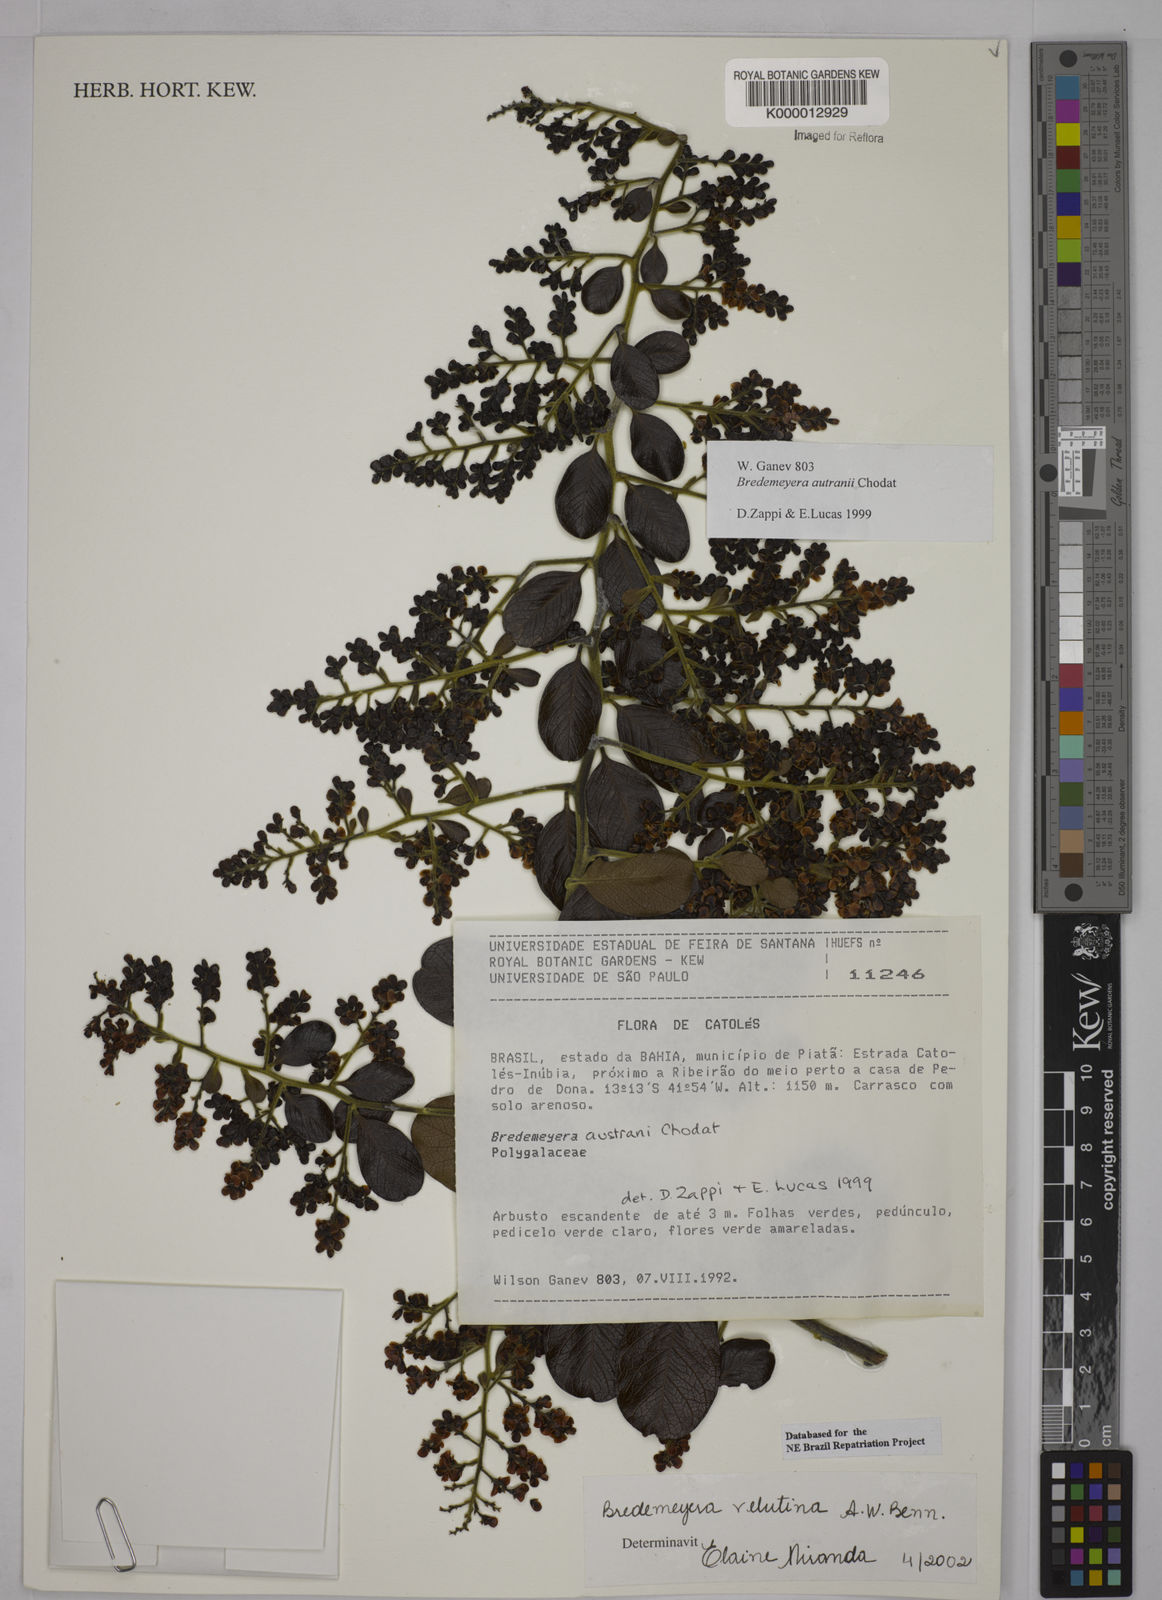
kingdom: Plantae
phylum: Tracheophyta
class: Magnoliopsida
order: Fabales
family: Polygalaceae
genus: Bredemeyera
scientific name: Bredemeyera hebeclada
